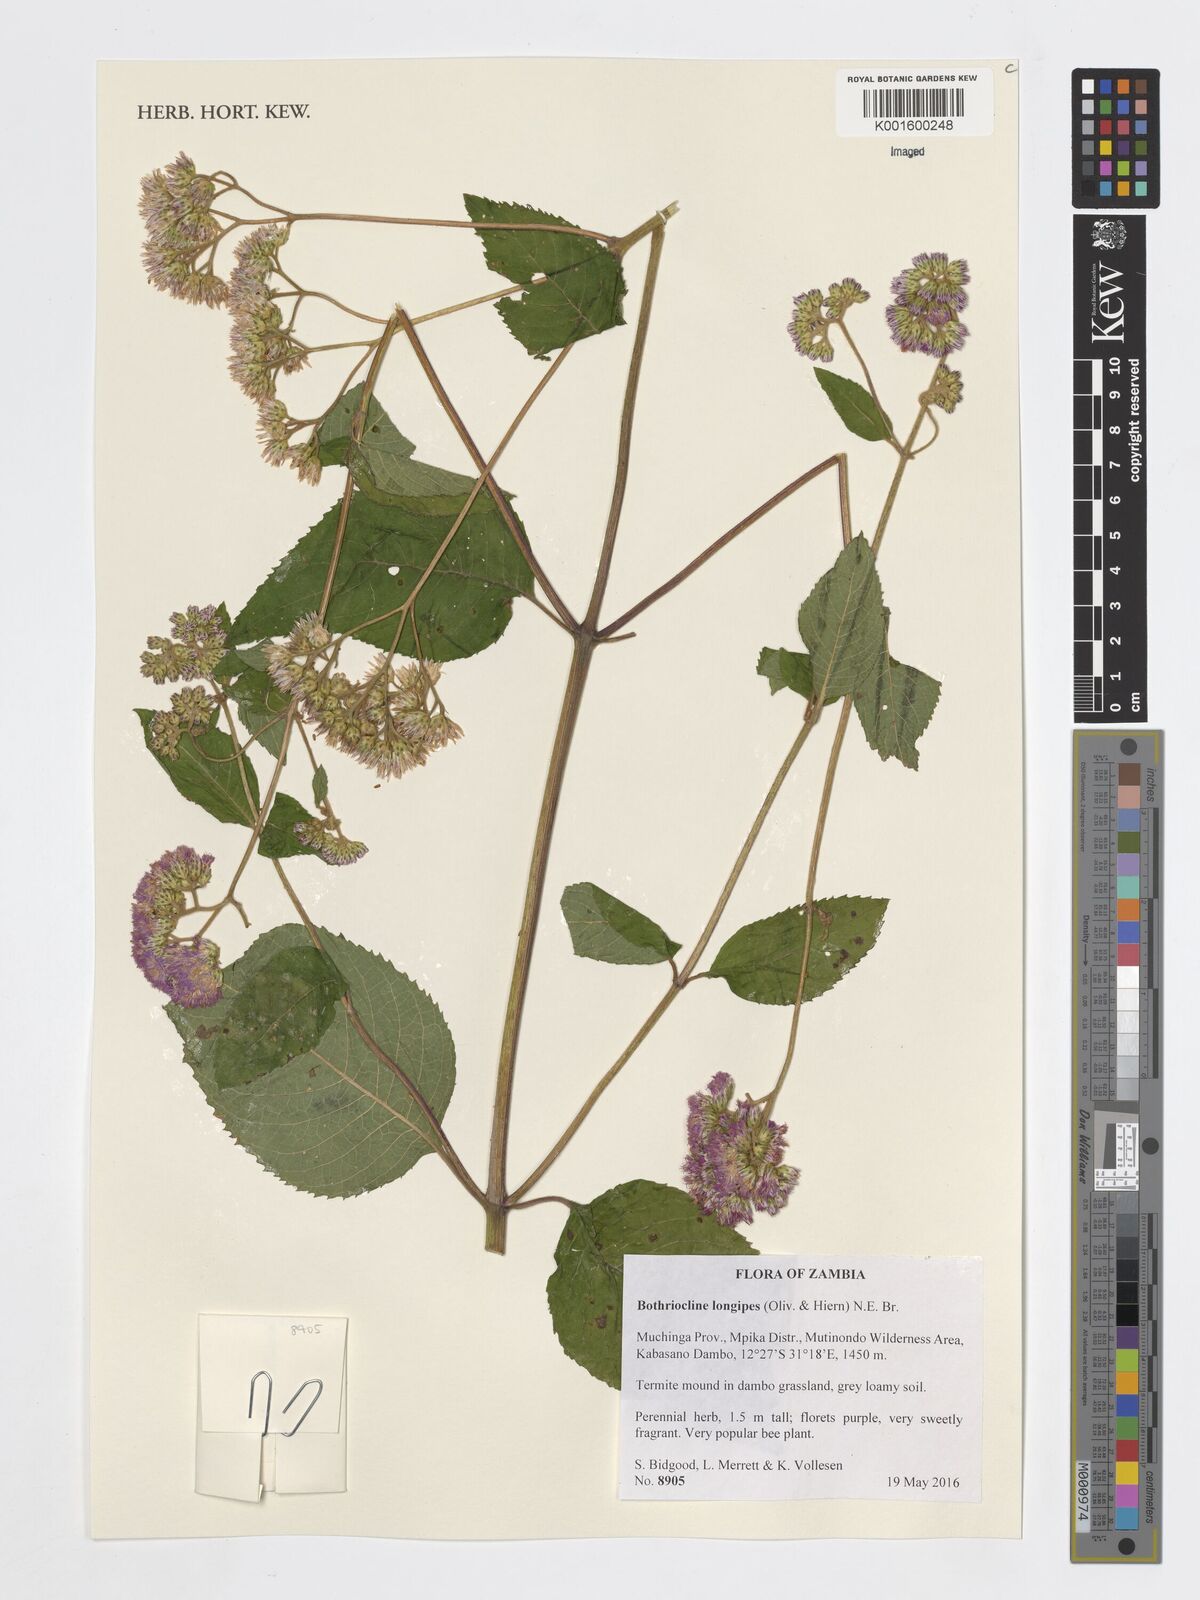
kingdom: Plantae
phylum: Tracheophyta
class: Magnoliopsida
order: Asterales
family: Asteraceae
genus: Bothriocline
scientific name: Bothriocline longipes
